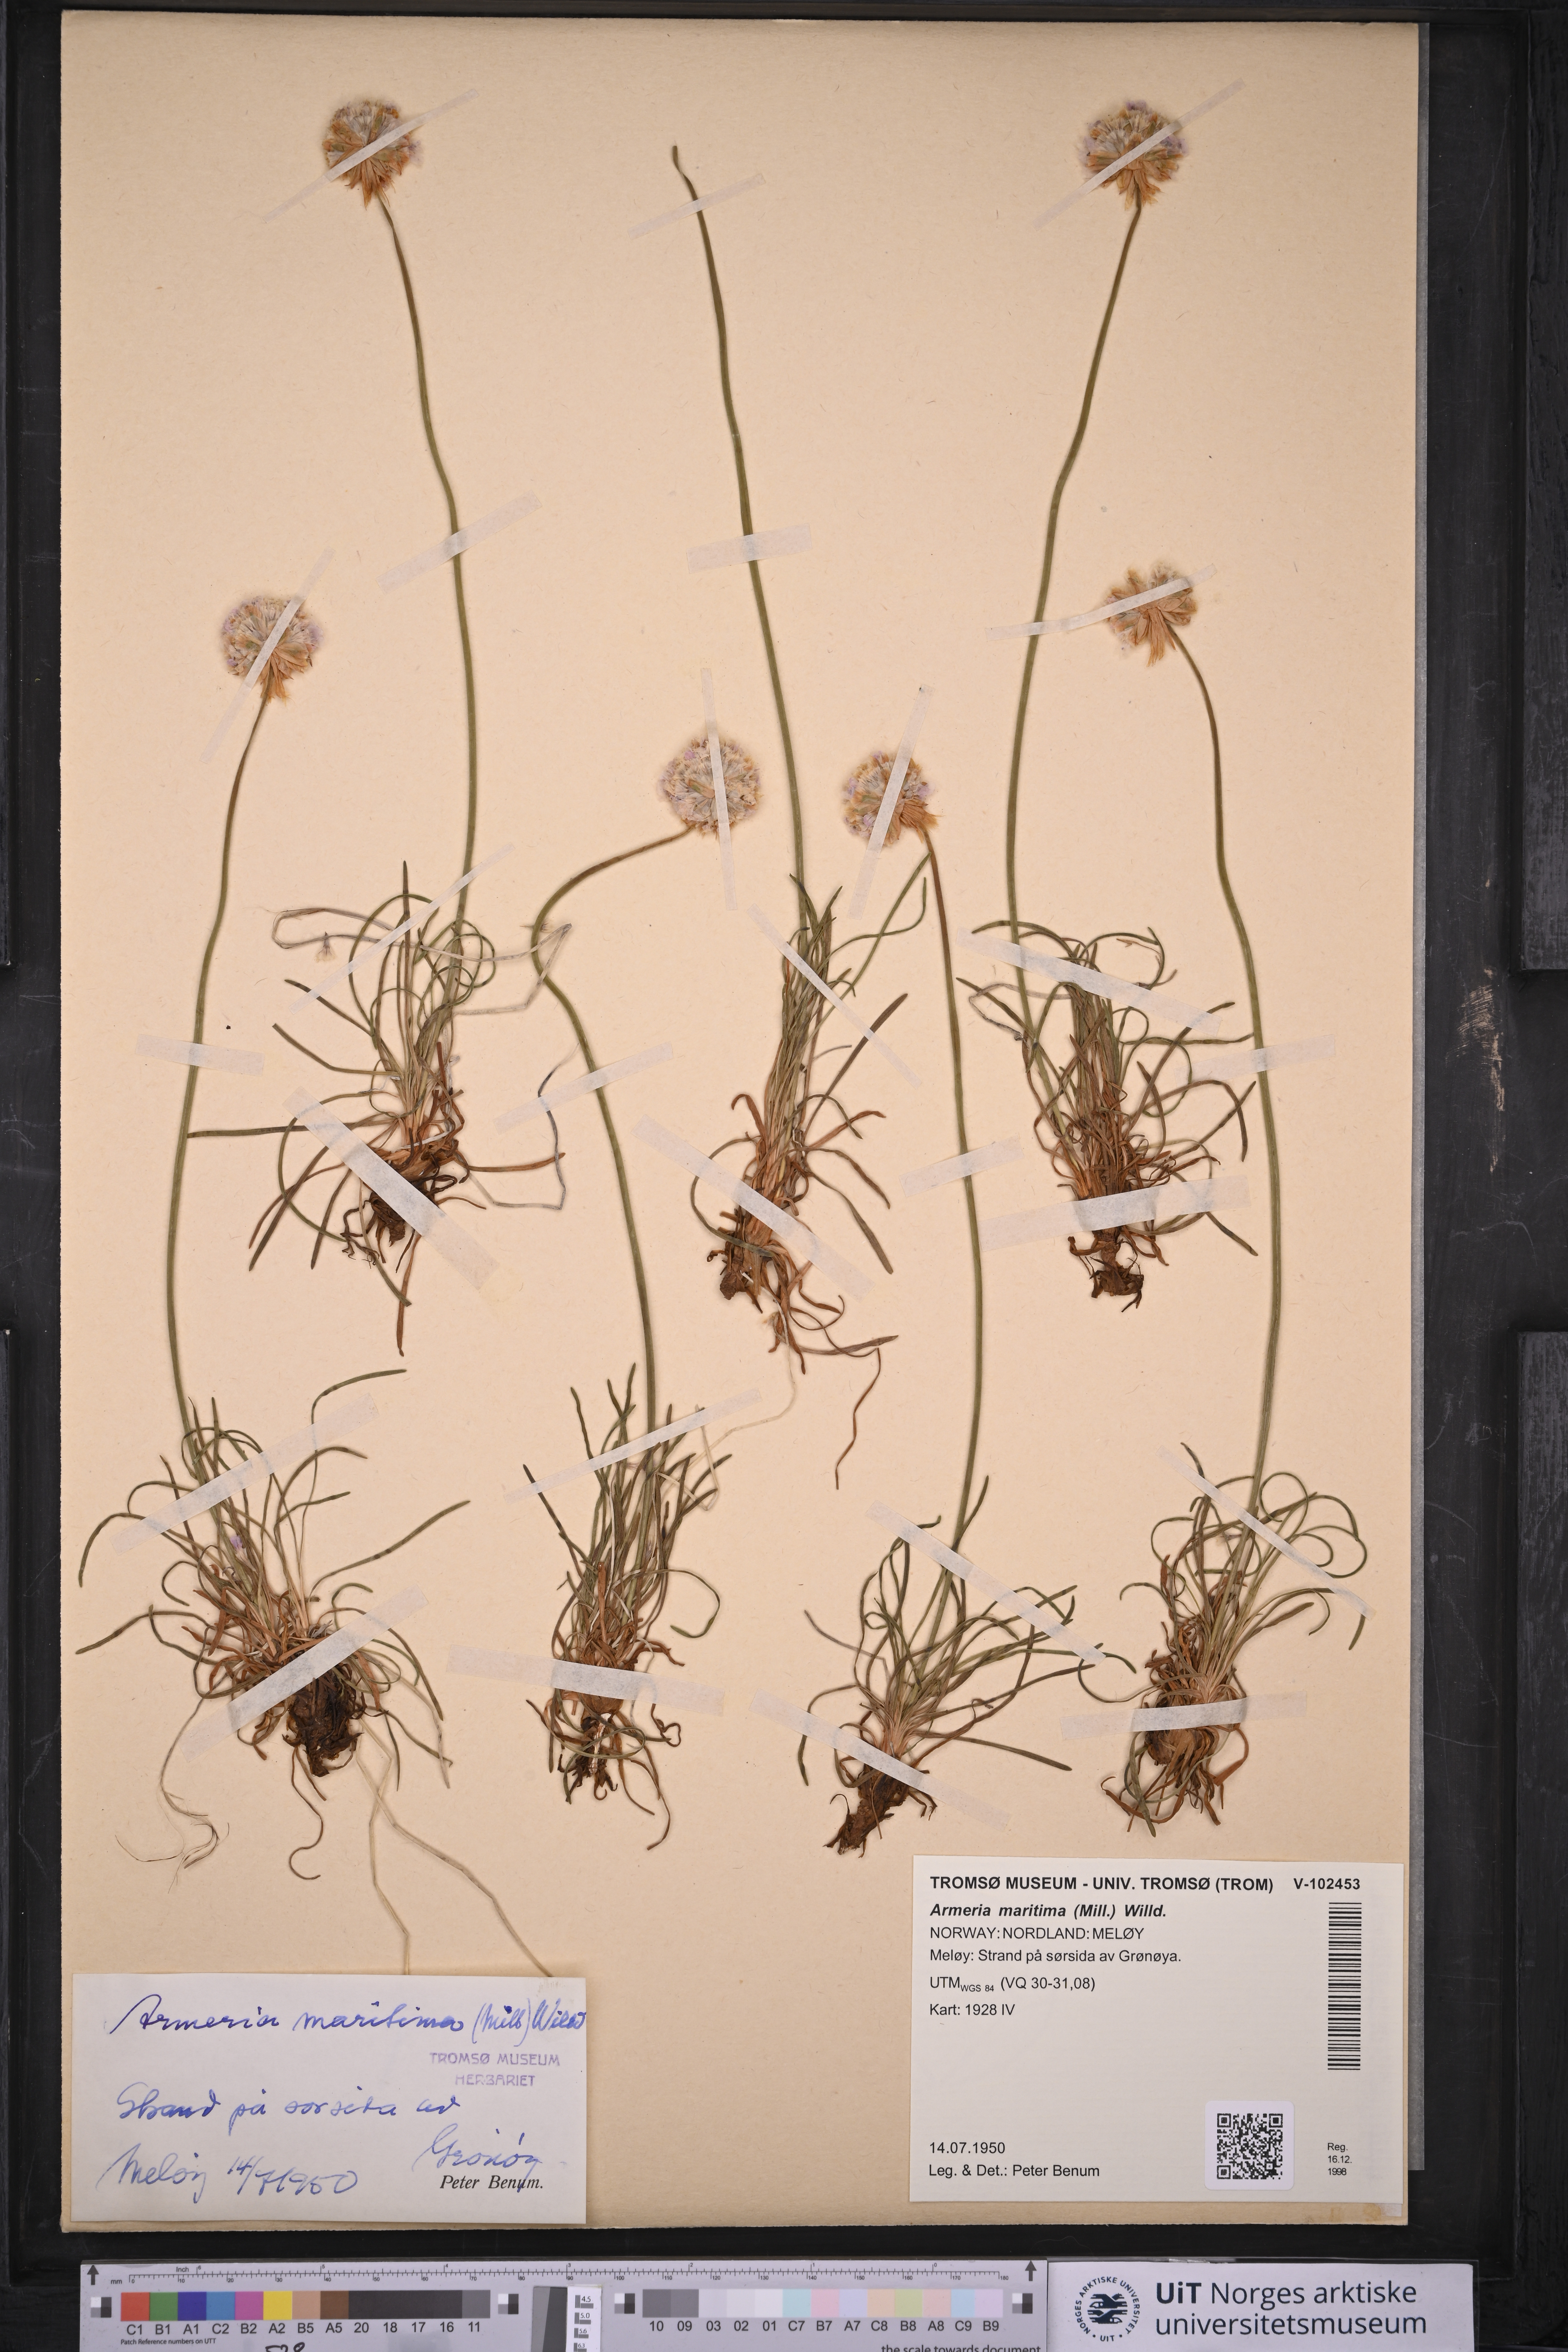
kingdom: Plantae
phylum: Tracheophyta
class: Magnoliopsida
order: Caryophyllales
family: Plumbaginaceae
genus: Armeria
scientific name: Armeria maritima
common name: Thrift
